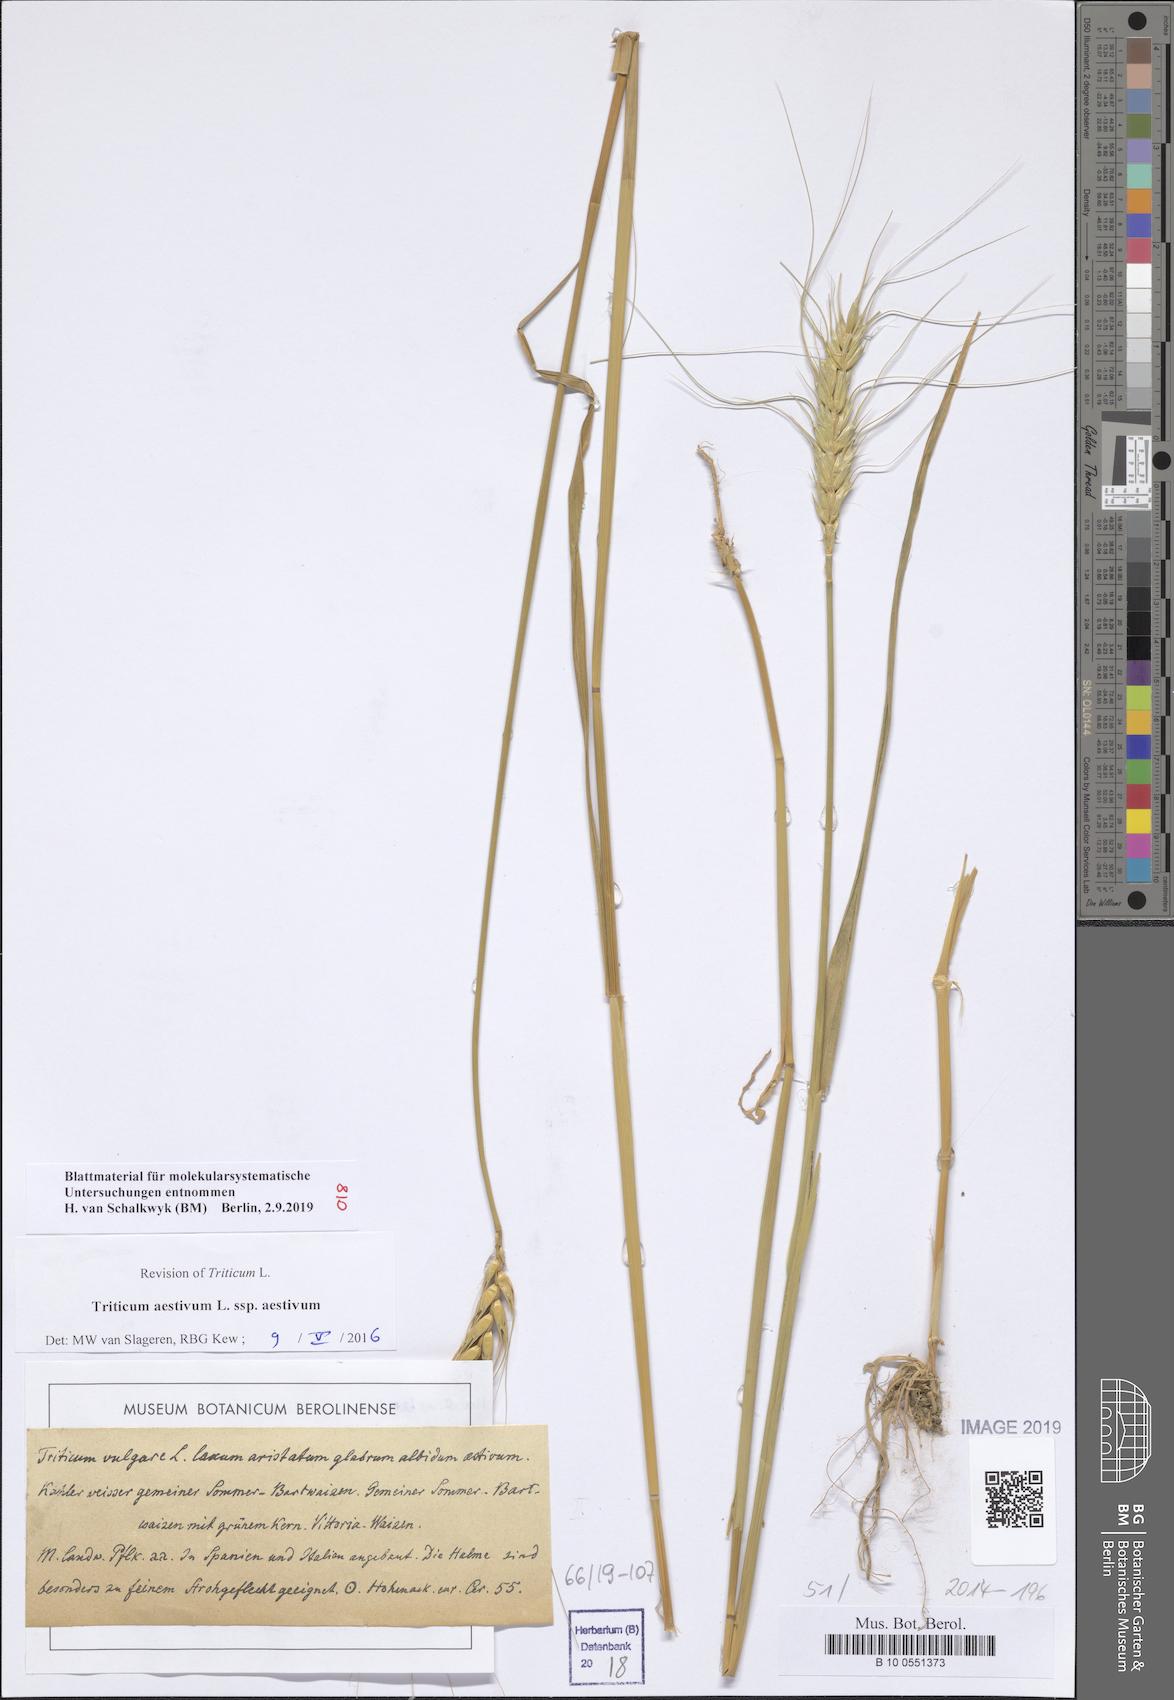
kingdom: Plantae
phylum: Tracheophyta
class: Liliopsida
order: Poales
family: Poaceae
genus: Triticum
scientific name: Triticum aestivum
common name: Common wheat
